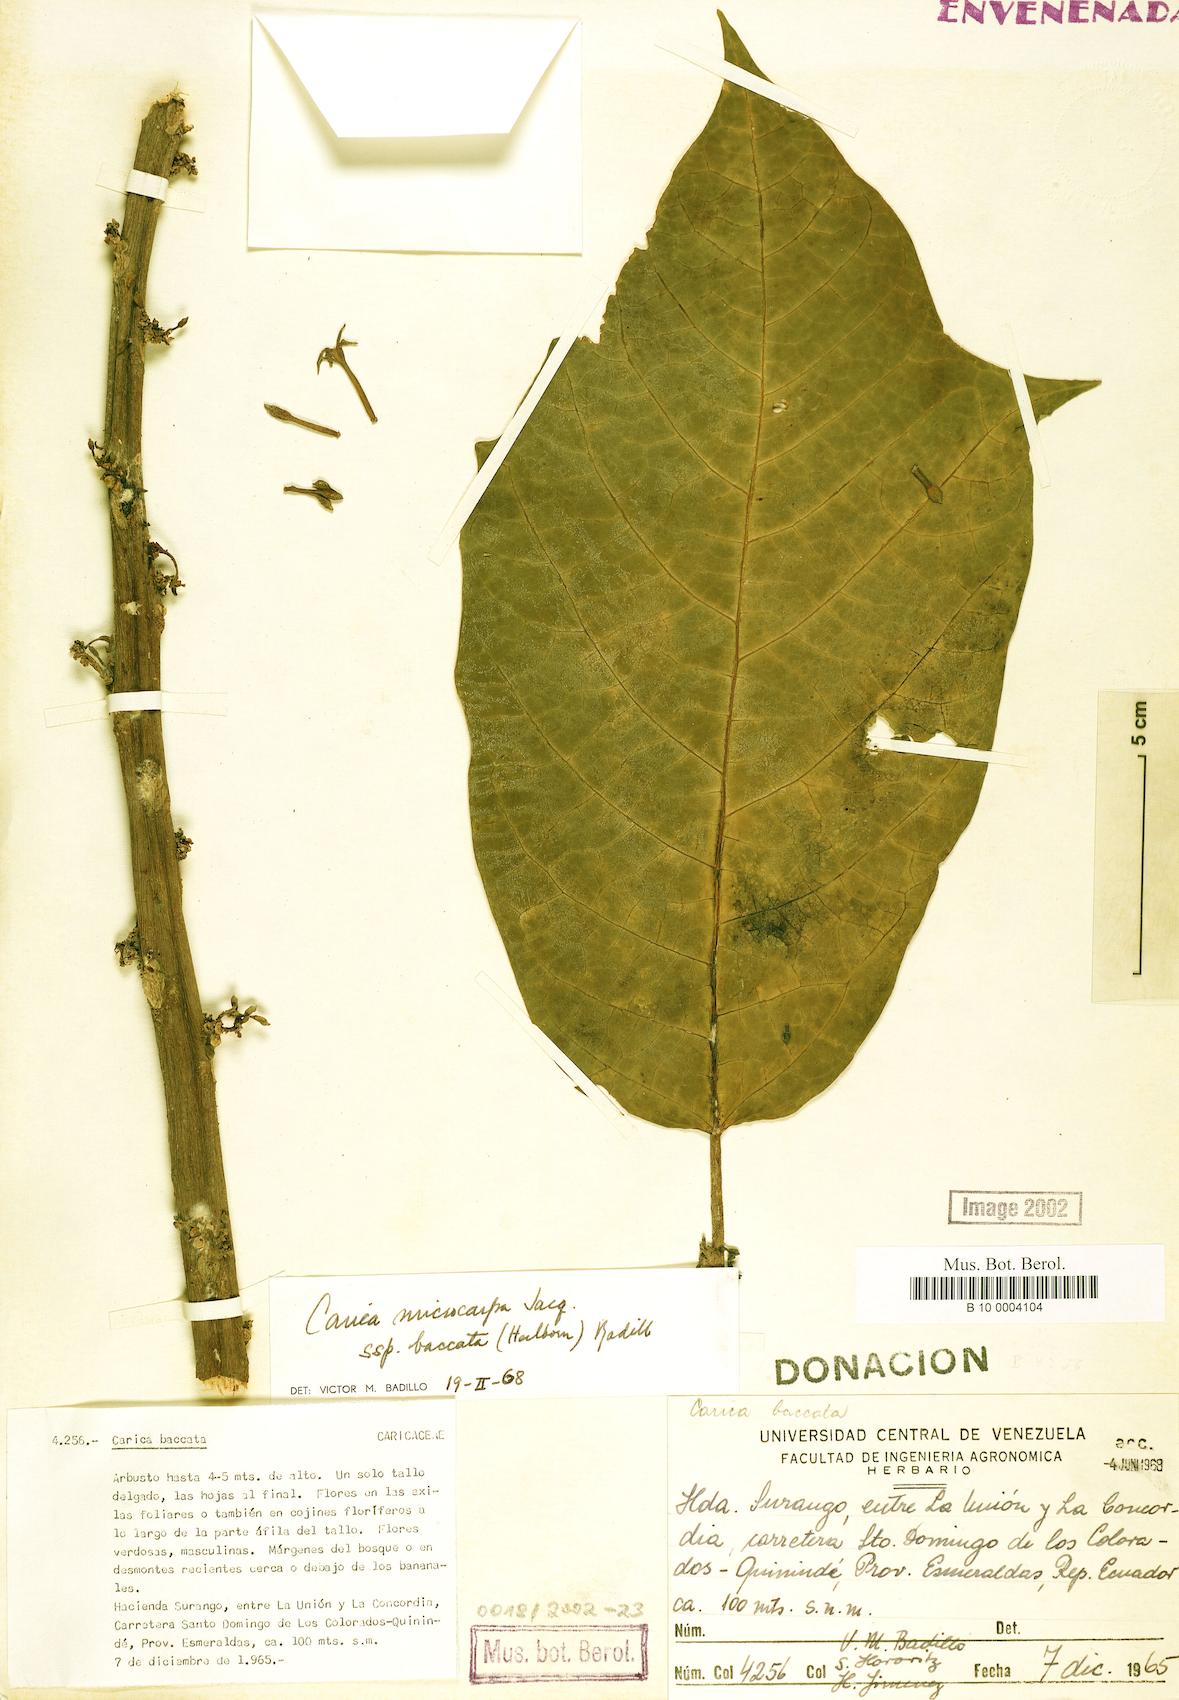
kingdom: Plantae
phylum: Tracheophyta
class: Magnoliopsida
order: Brassicales
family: Caricaceae
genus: Vasconcellea
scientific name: Vasconcellea microcarpa
